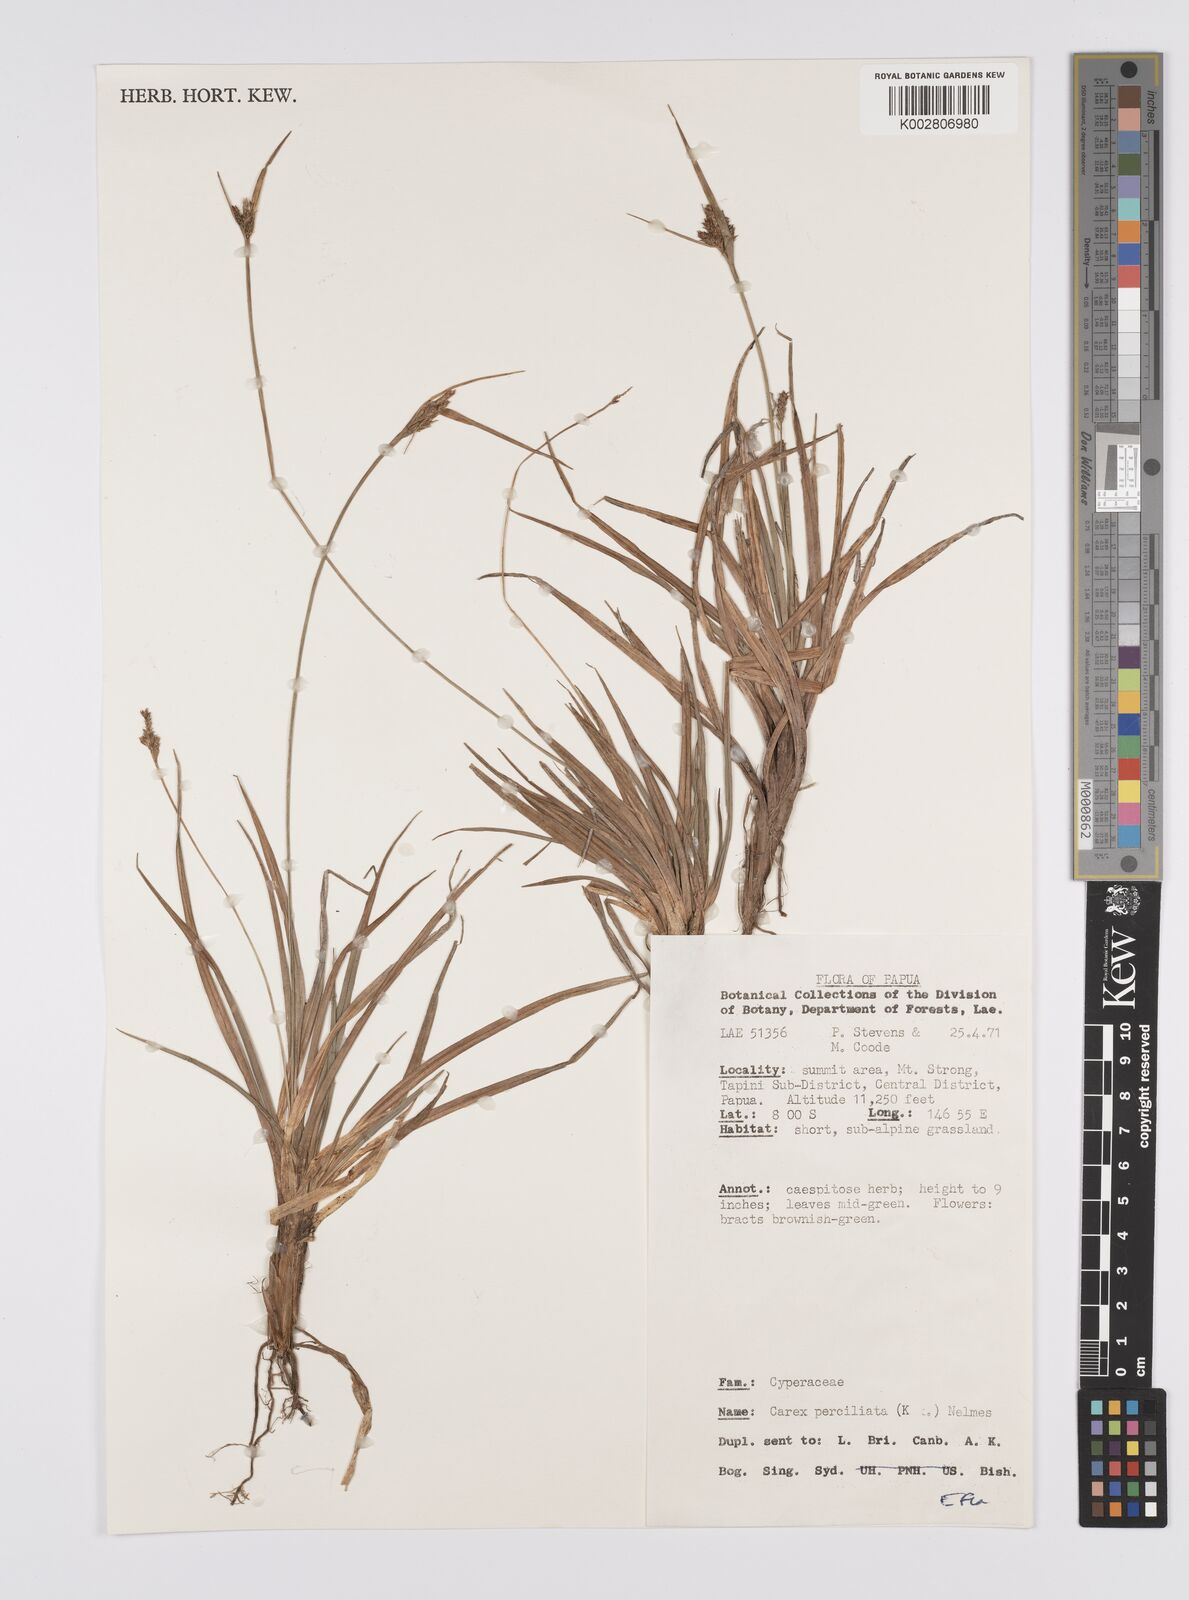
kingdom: Plantae
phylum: Tracheophyta
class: Liliopsida
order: Poales
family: Cyperaceae
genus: Carex
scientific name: Carex breviculmis
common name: Asian shortstem sedge
